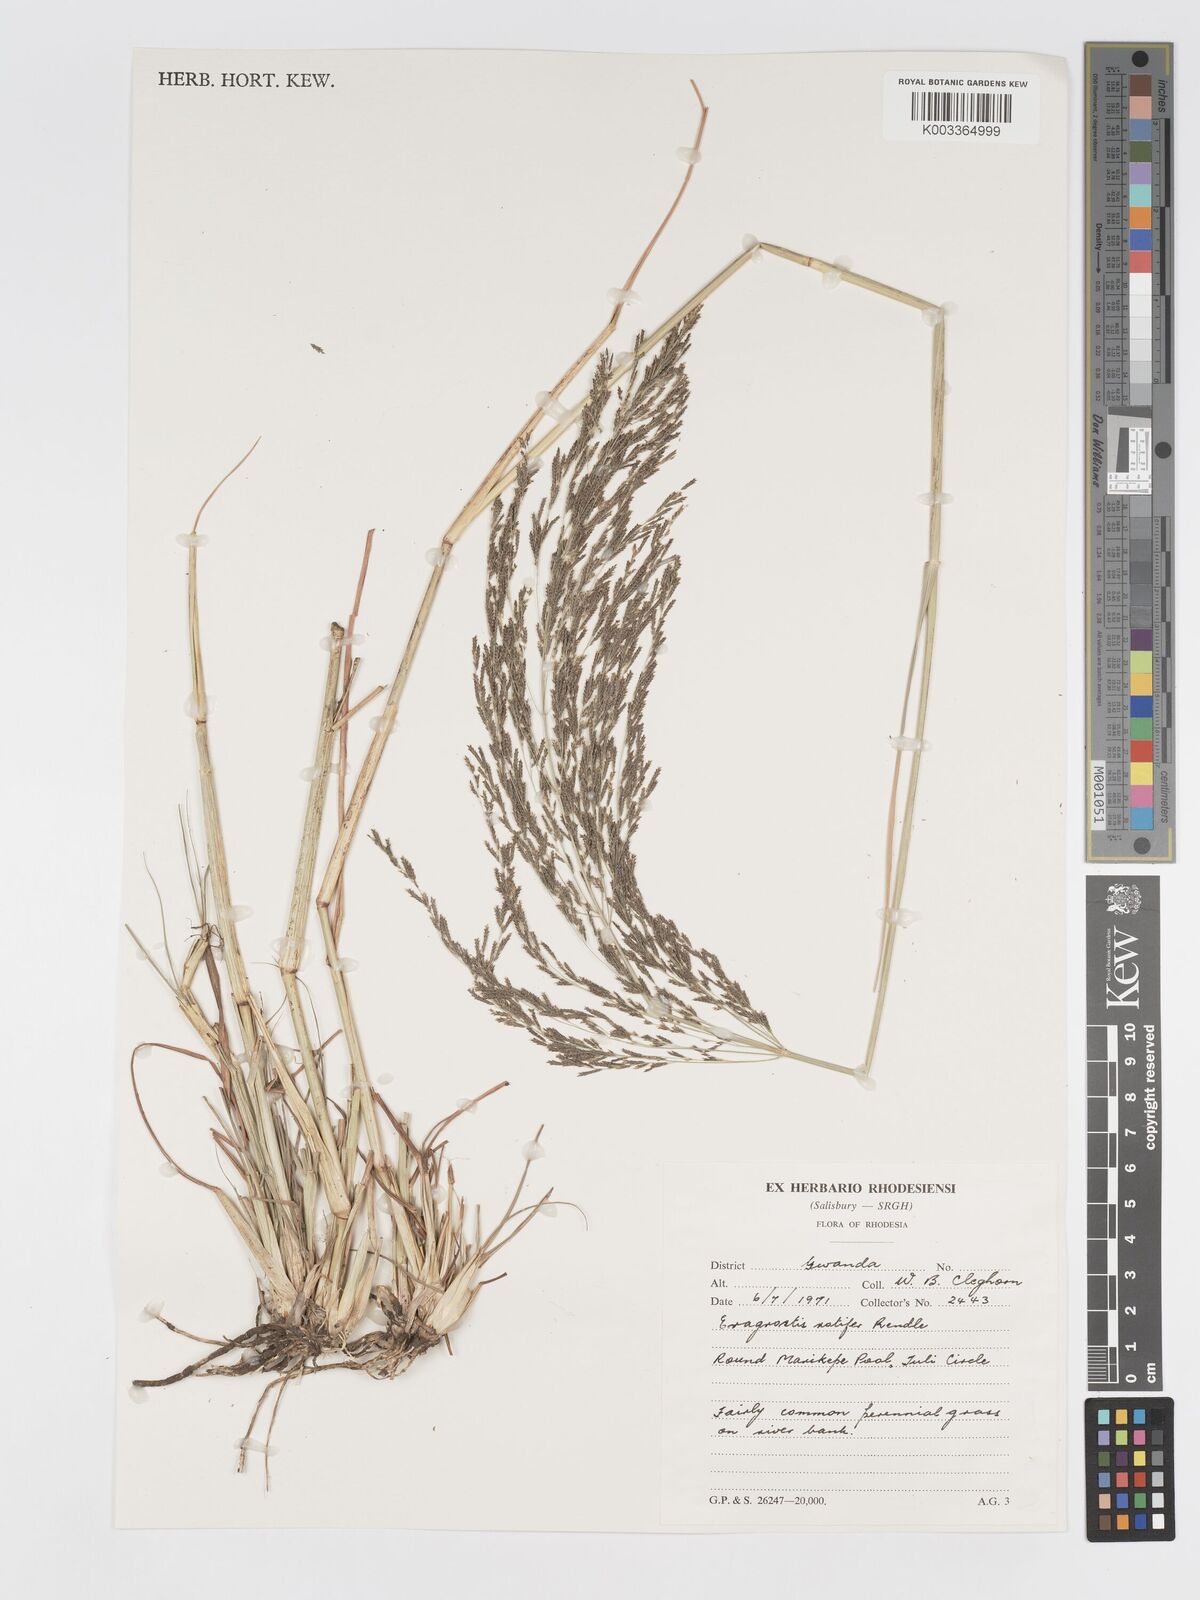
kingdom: Plantae
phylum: Tracheophyta
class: Liliopsida
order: Poales
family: Poaceae
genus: Eragrostis
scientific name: Eragrostis rotifer
